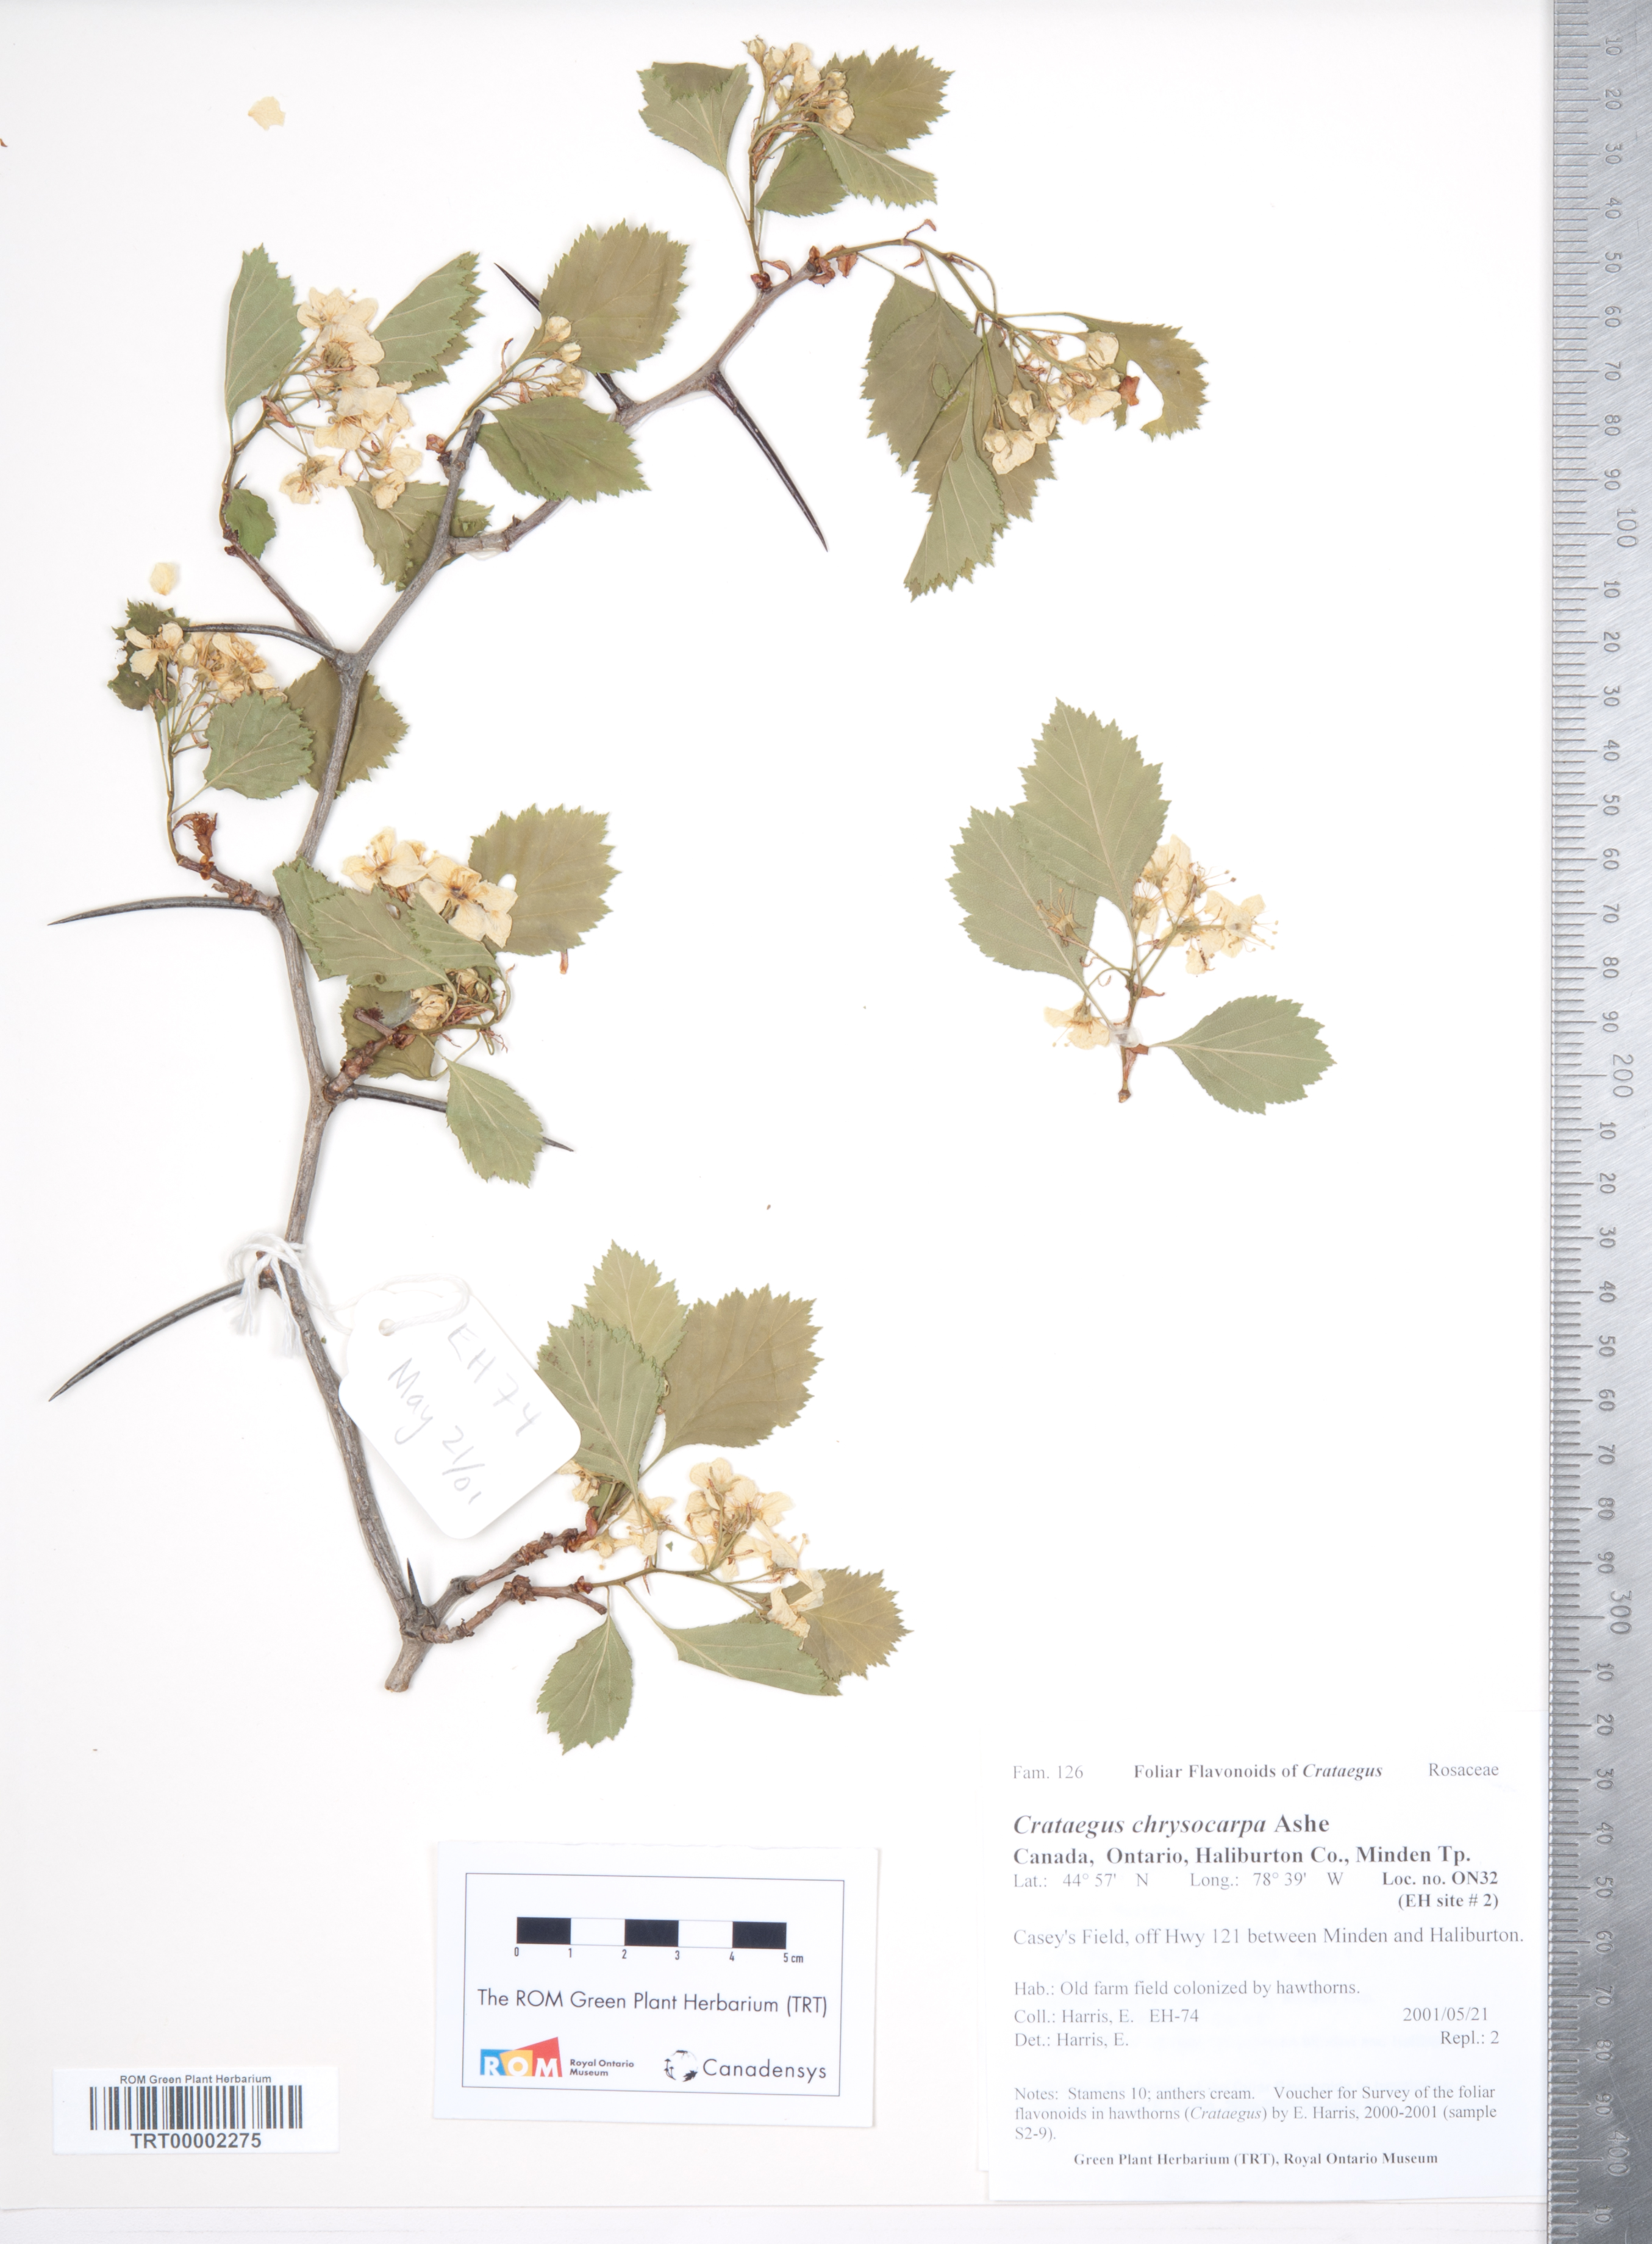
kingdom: Plantae
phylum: Tracheophyta
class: Magnoliopsida
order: Rosales
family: Rosaceae
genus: Crataegus
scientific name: Crataegus chrysocarpa
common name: Fire-berry hawthorn
